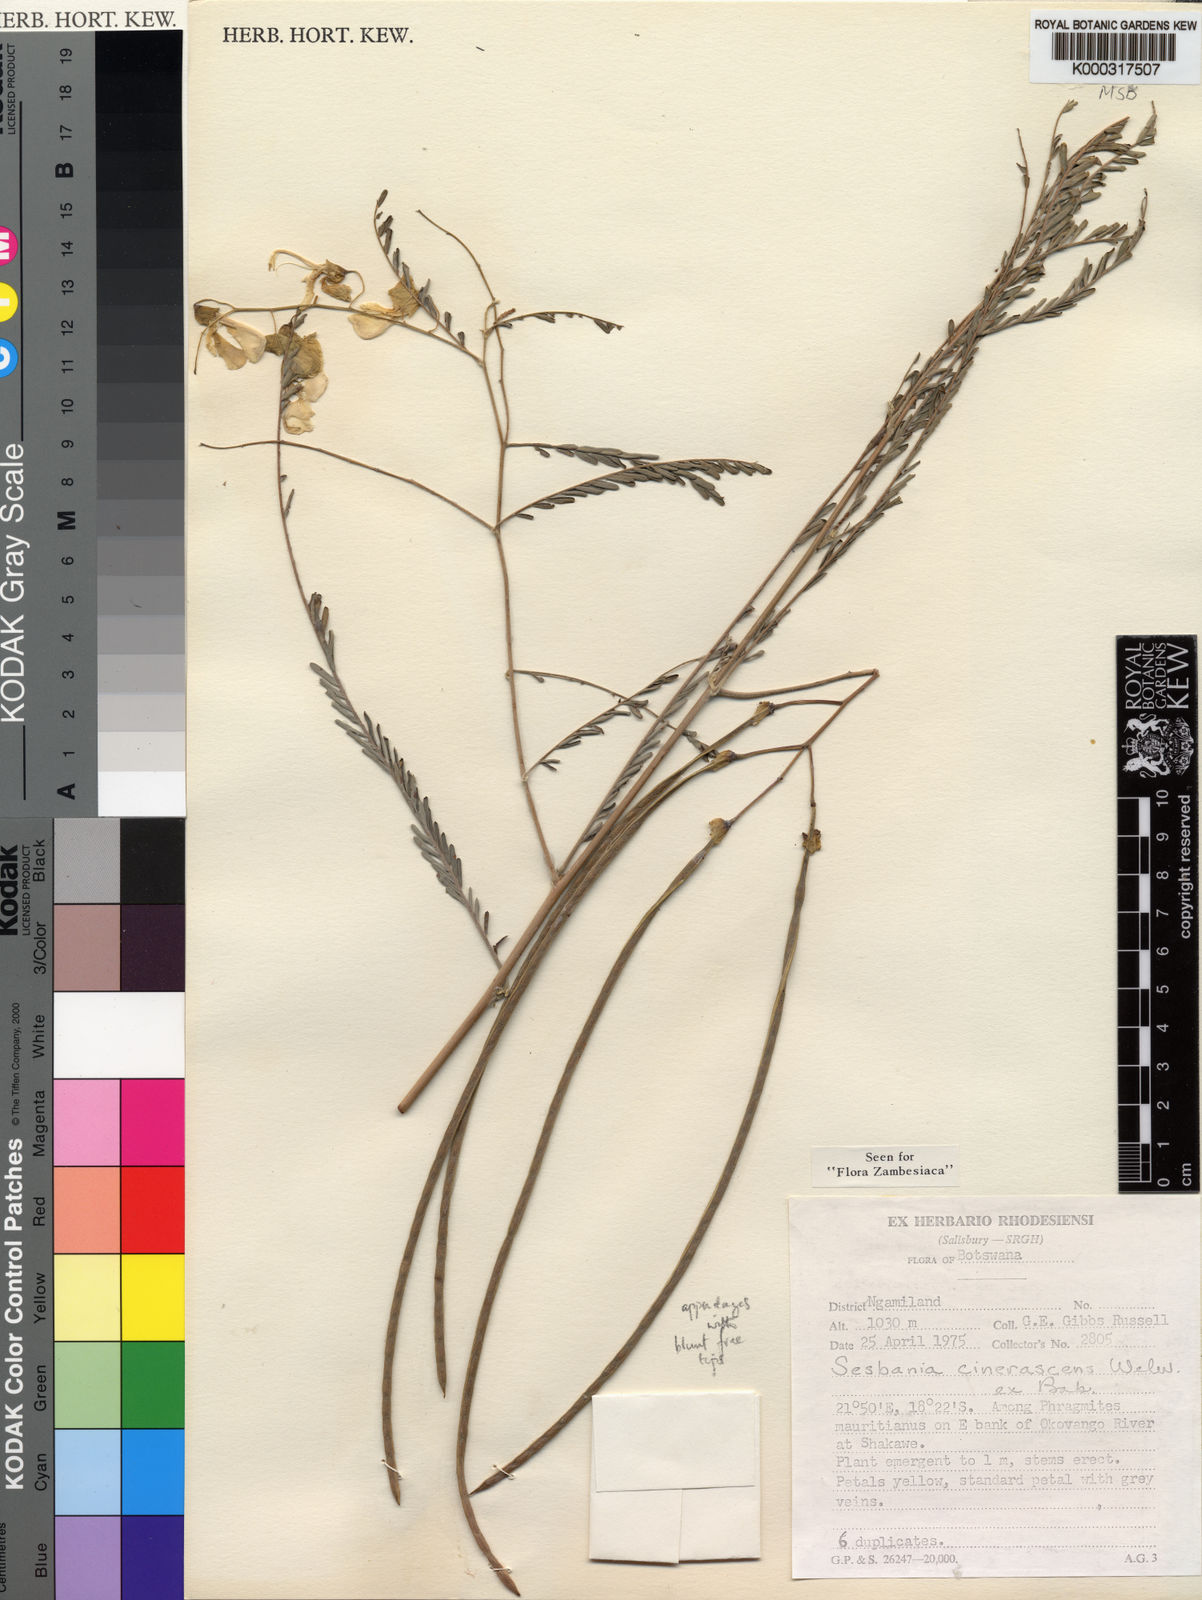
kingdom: Plantae
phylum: Tracheophyta
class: Magnoliopsida
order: Fabales
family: Fabaceae
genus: Sesbania
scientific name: Sesbania cinerascens
